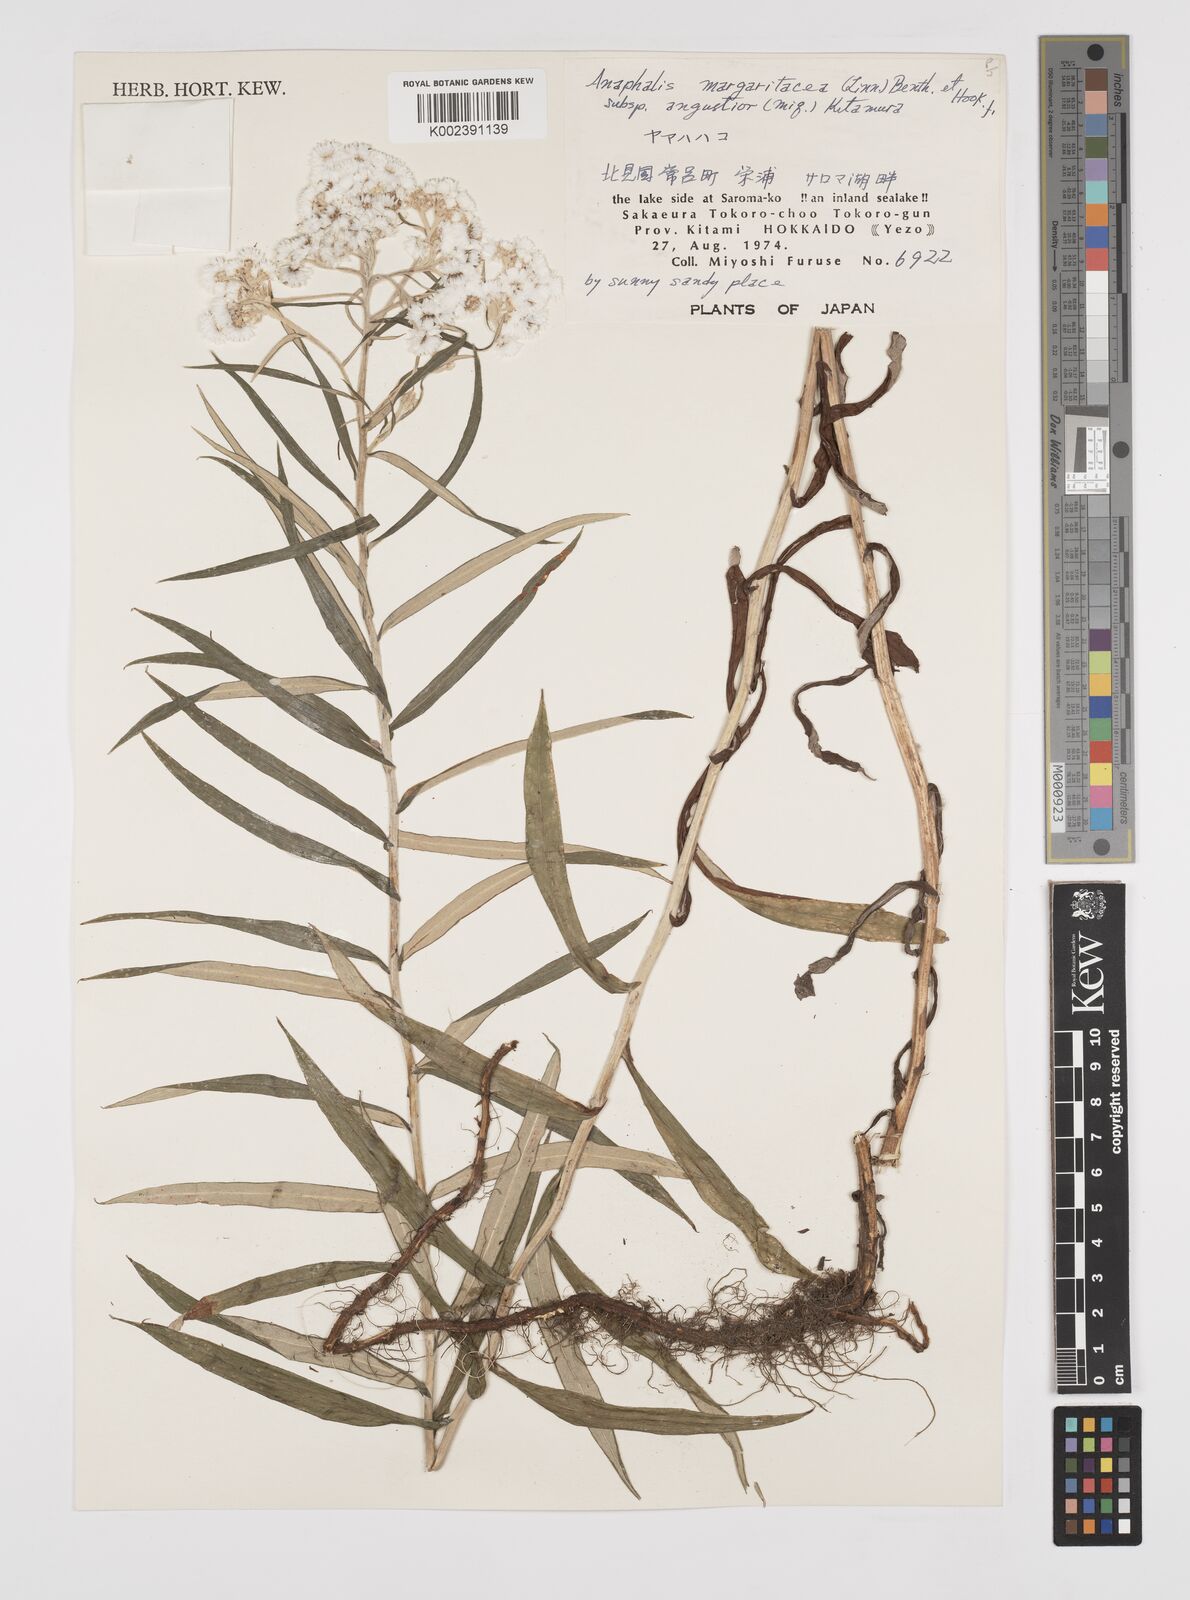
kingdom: Plantae
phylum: Tracheophyta
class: Magnoliopsida
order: Asterales
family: Asteraceae
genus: Anaphalis
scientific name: Anaphalis margaritacea
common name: Pearly everlasting
